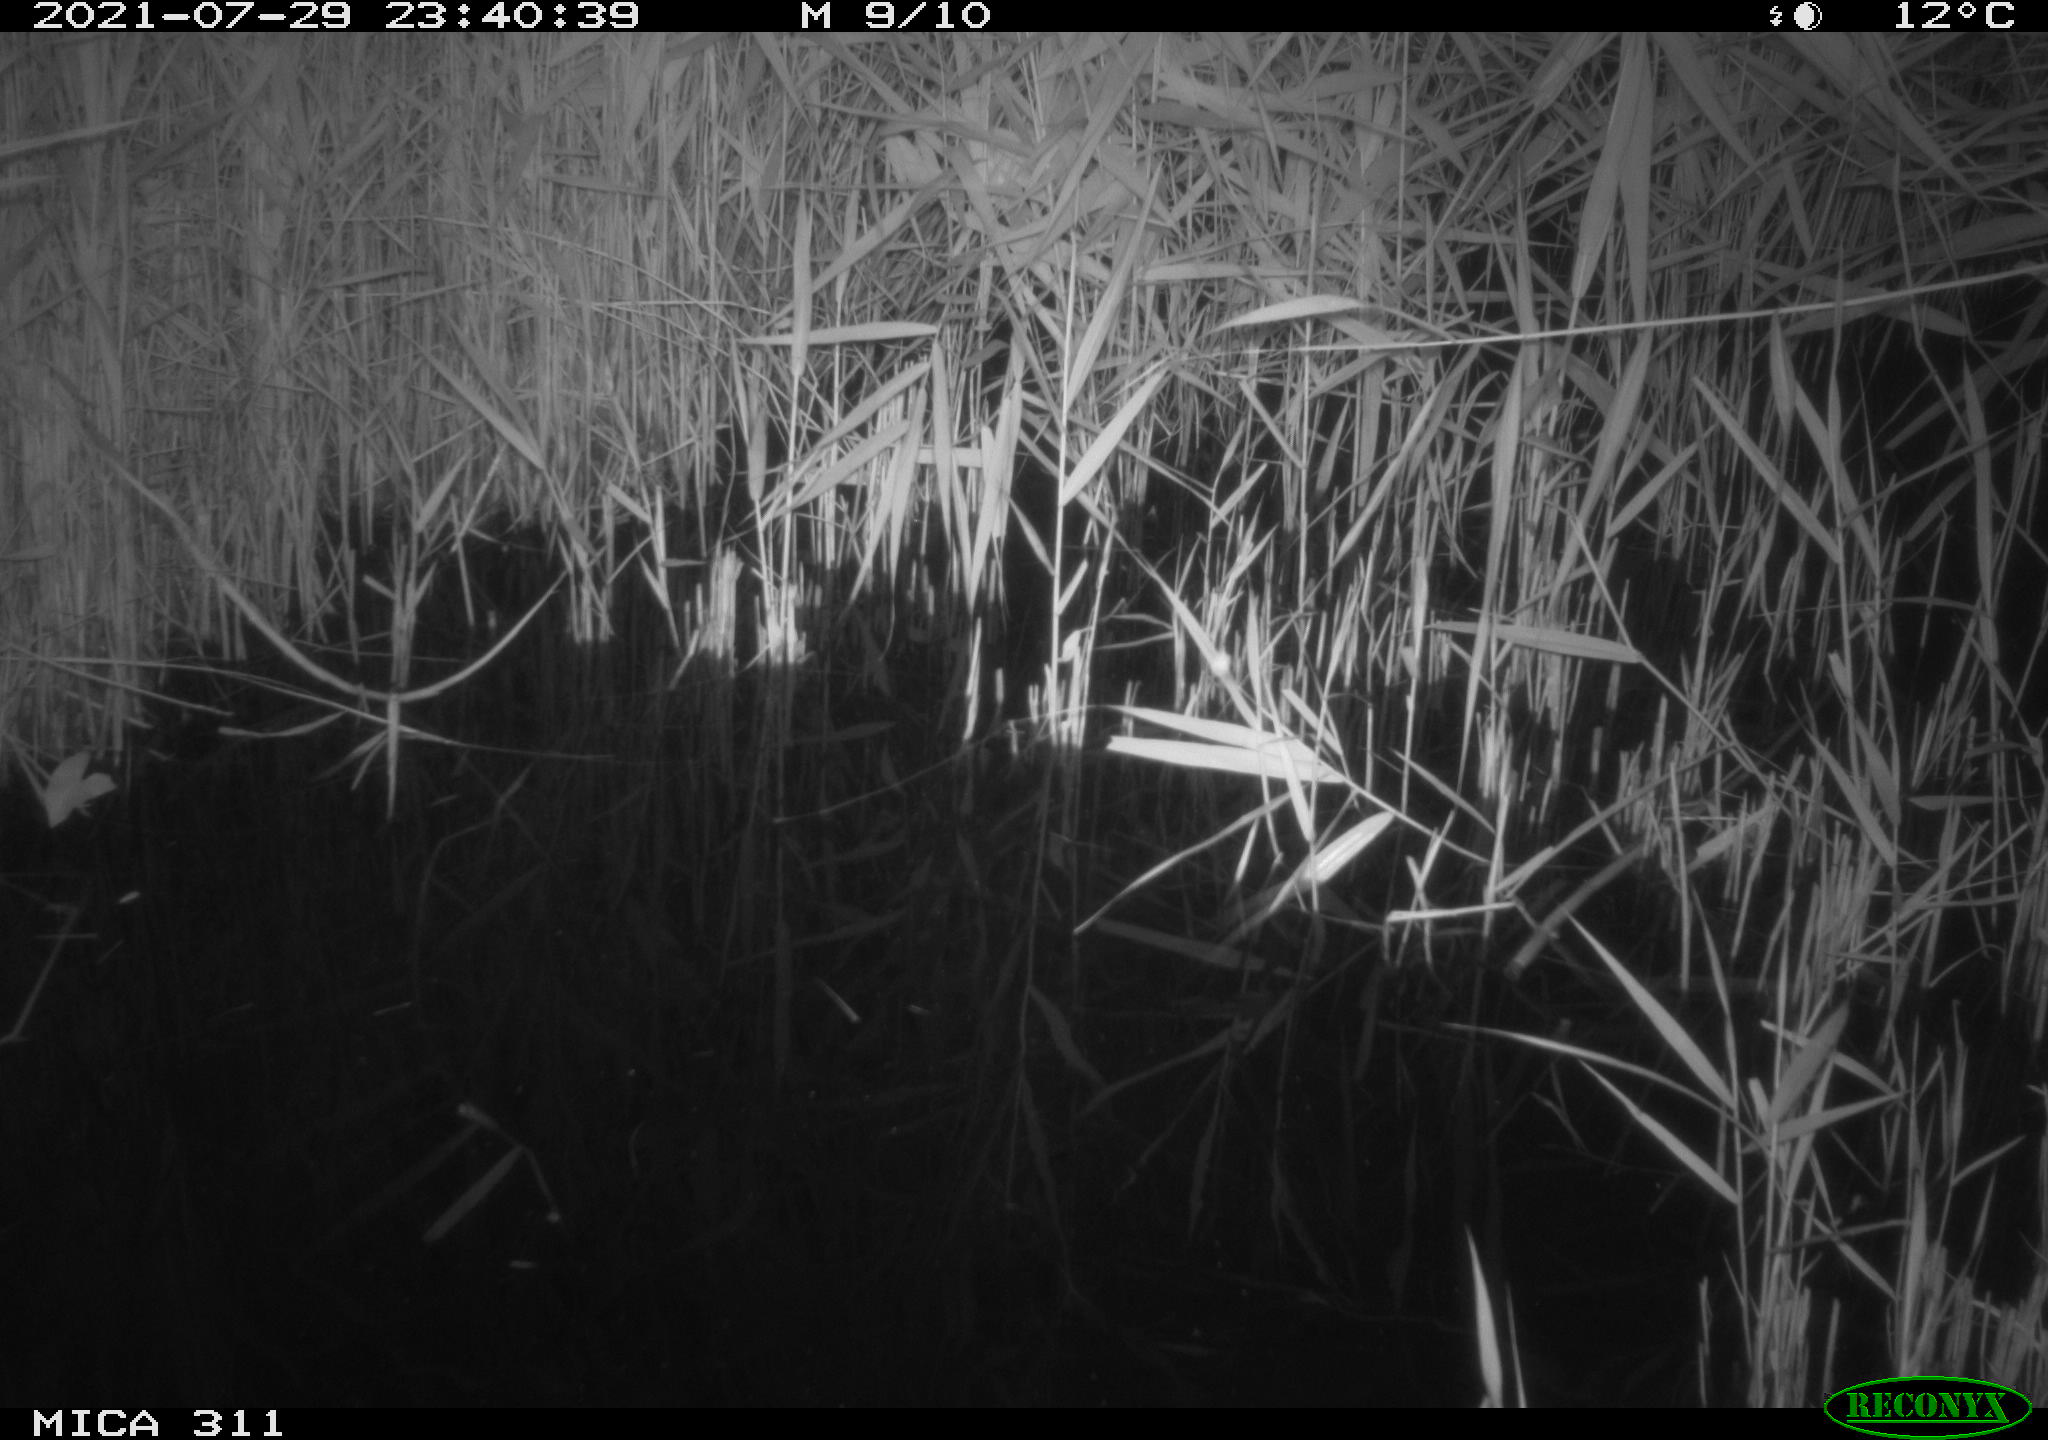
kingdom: Animalia
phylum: Chordata
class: Mammalia
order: Rodentia
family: Muridae
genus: Rattus
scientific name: Rattus norvegicus
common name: Brown rat
